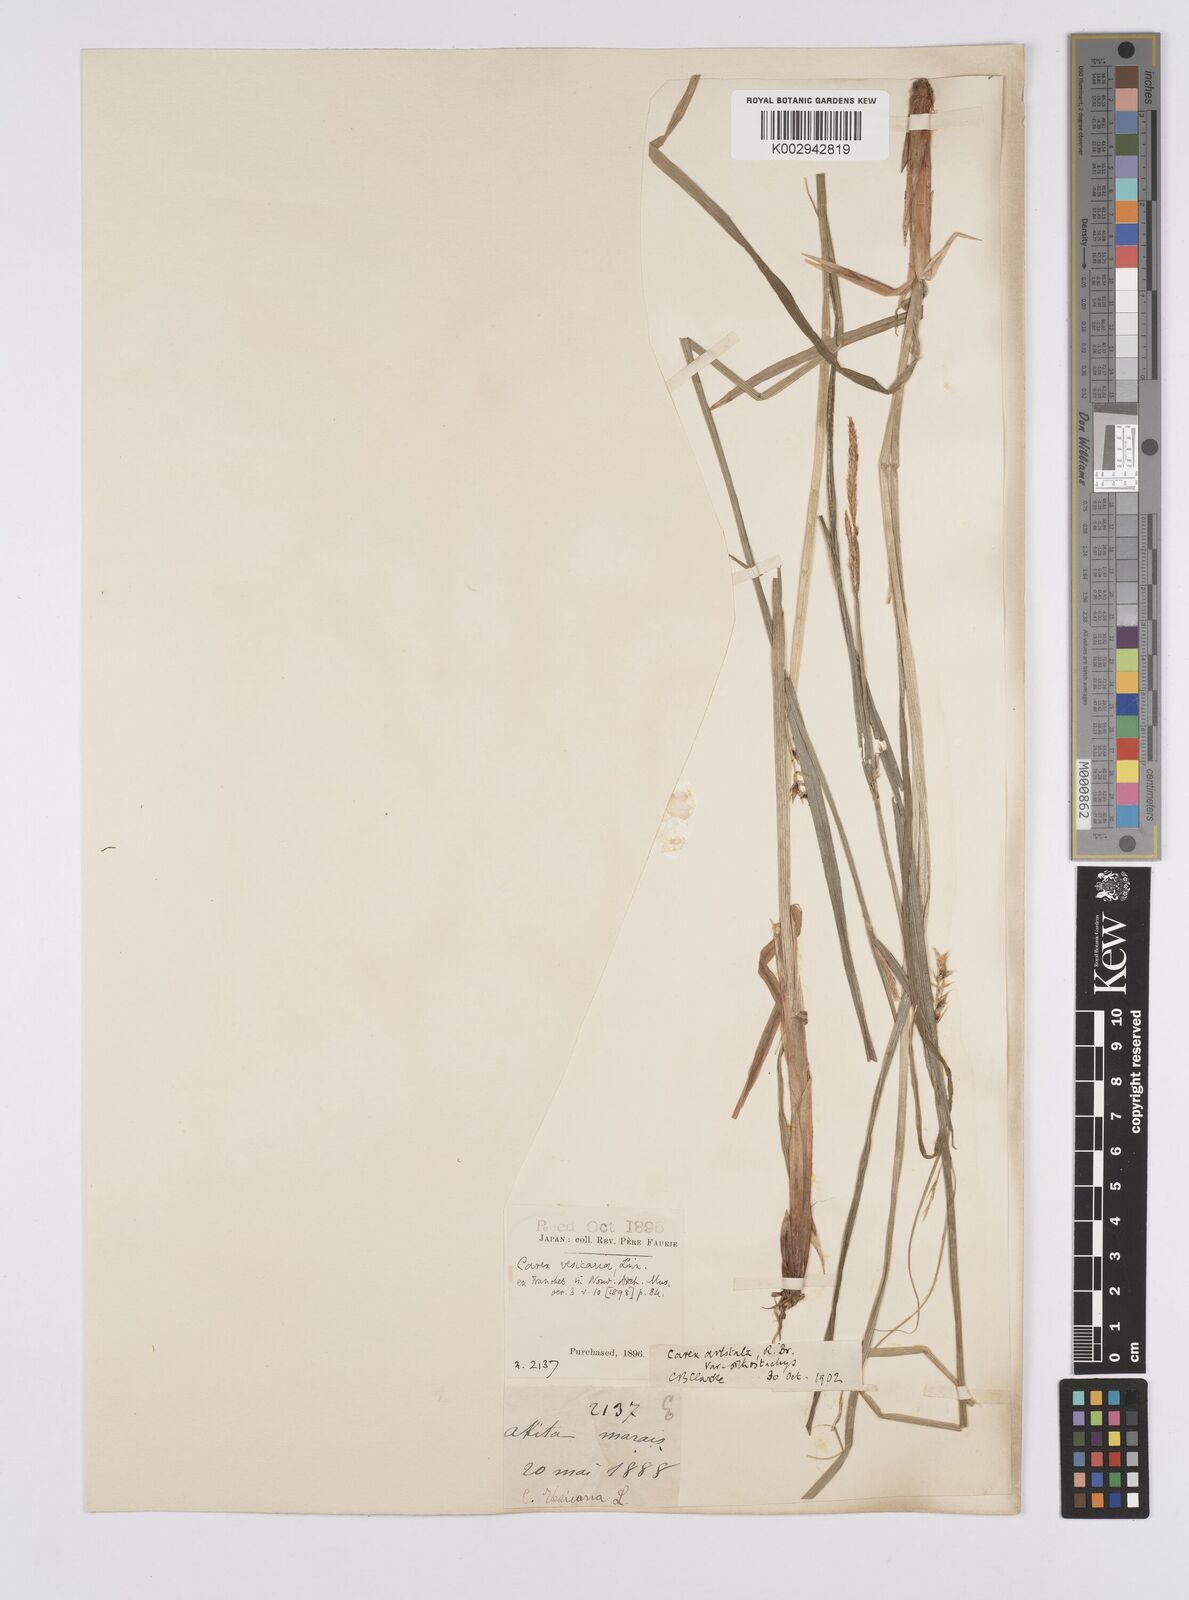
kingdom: Plantae
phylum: Tracheophyta
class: Liliopsida
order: Poales
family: Cyperaceae
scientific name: Cyperaceae
